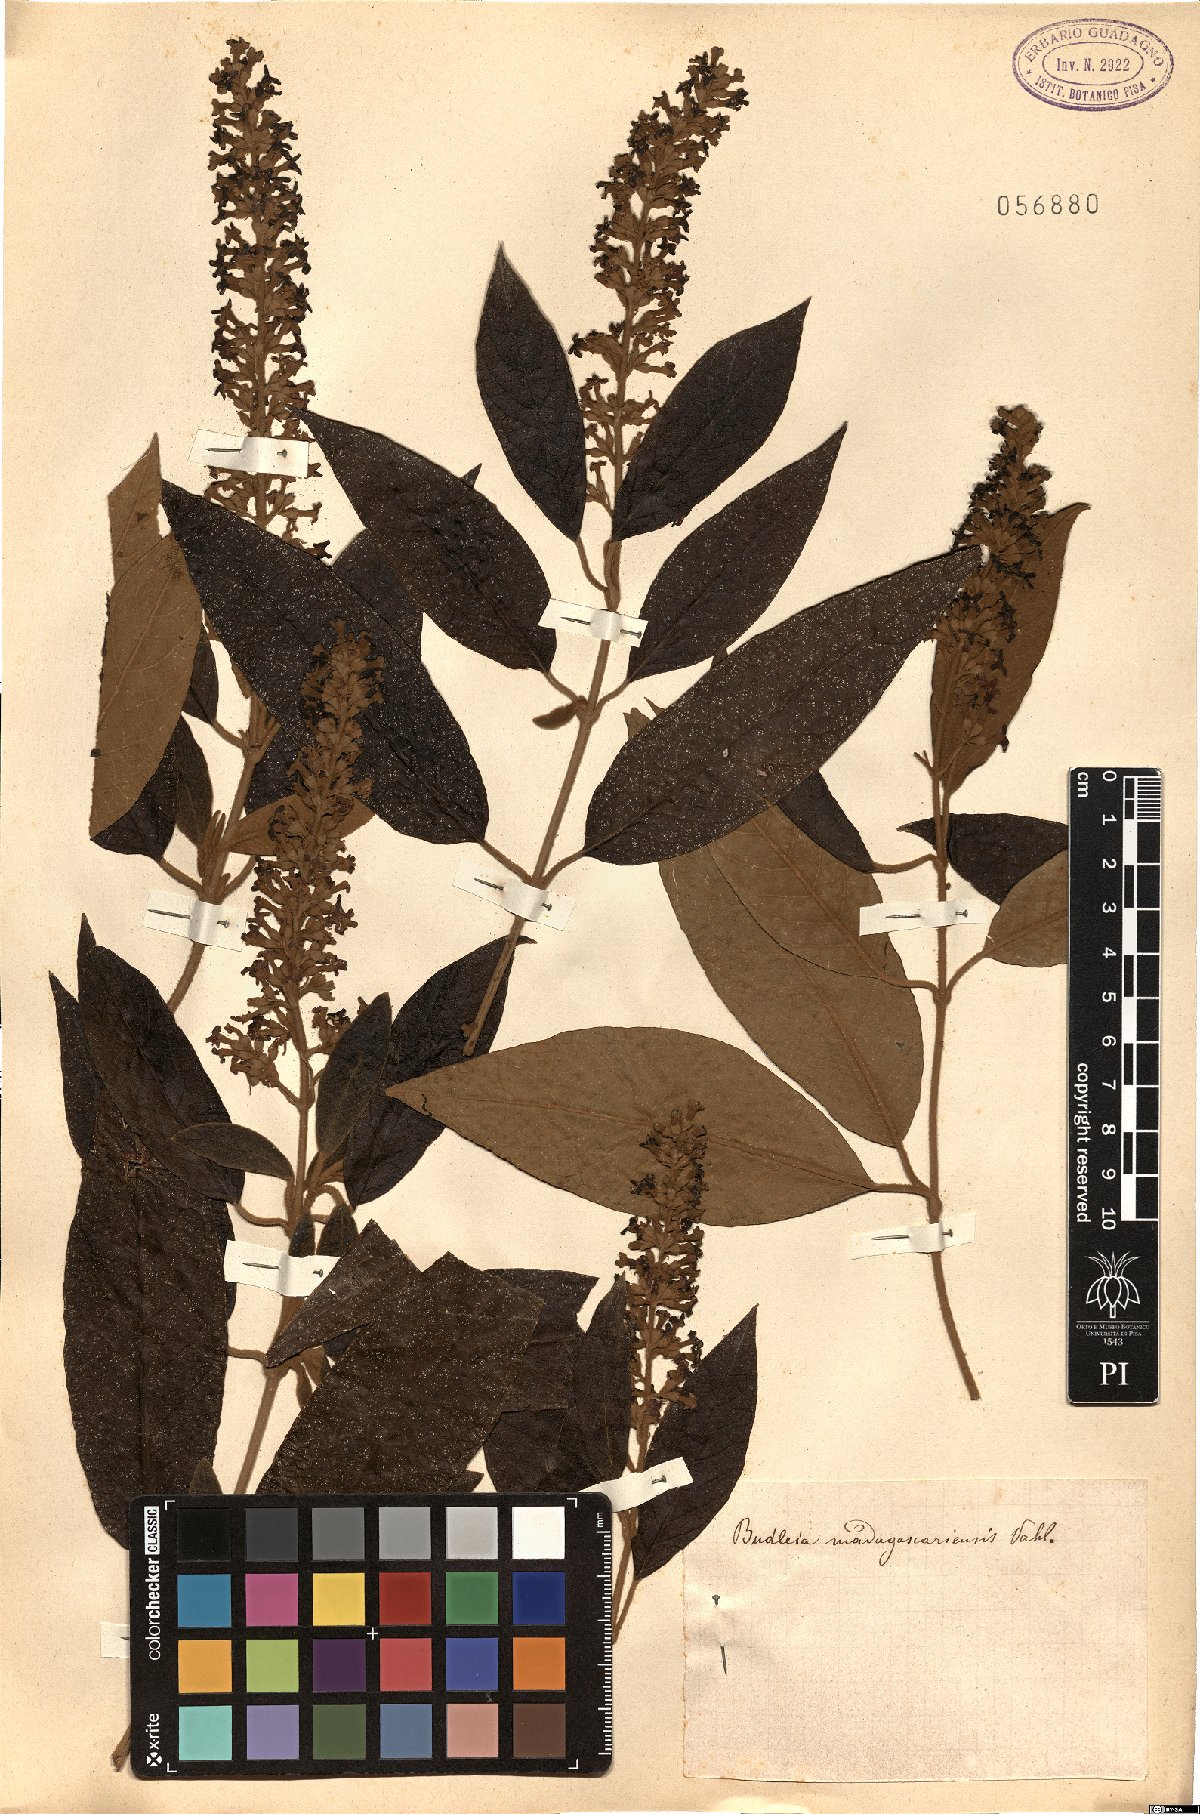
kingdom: Plantae
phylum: Tracheophyta
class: Magnoliopsida
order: Lamiales
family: Scrophulariaceae
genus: Buddleja
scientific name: Buddleja madagascariensis
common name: Smokebush
